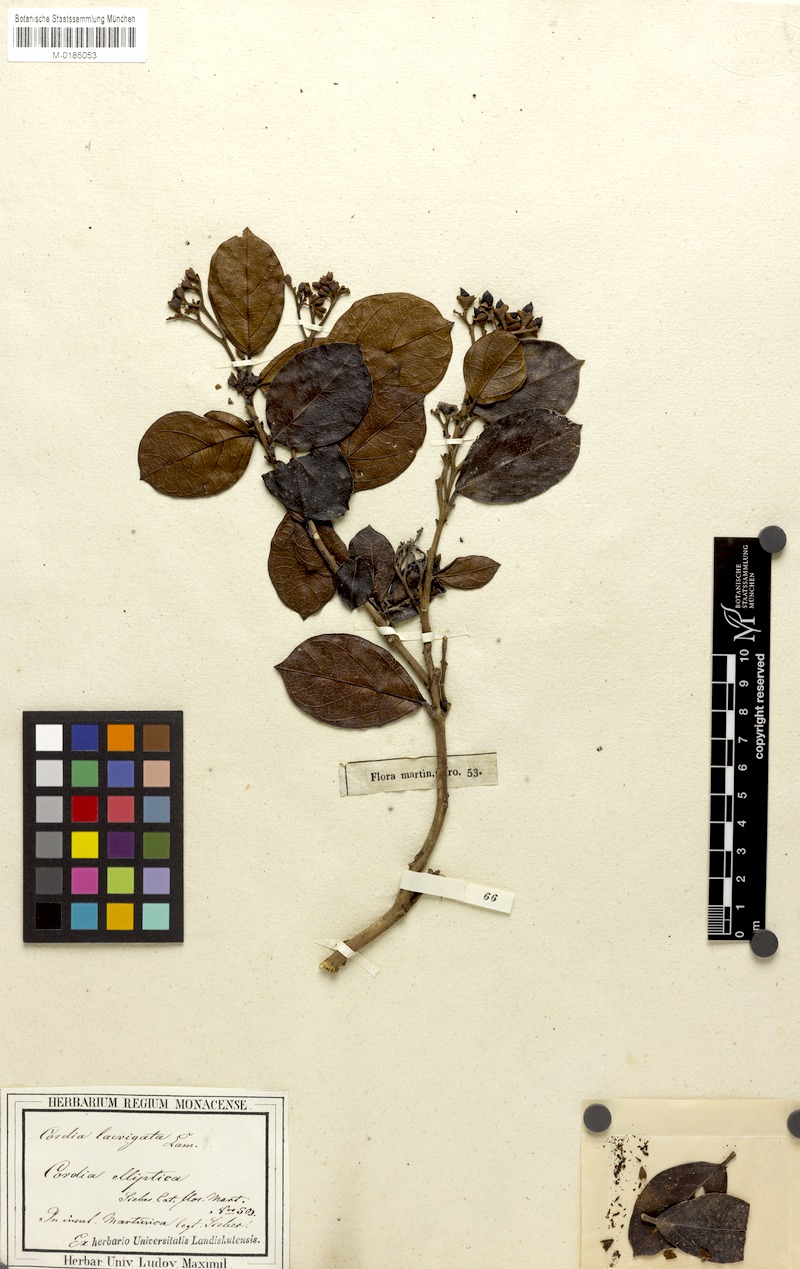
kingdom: Plantae
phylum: Tracheophyta
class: Magnoliopsida
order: Boraginales
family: Cordiaceae
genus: Cordia
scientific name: Cordia laevigata
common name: Clam cherry
